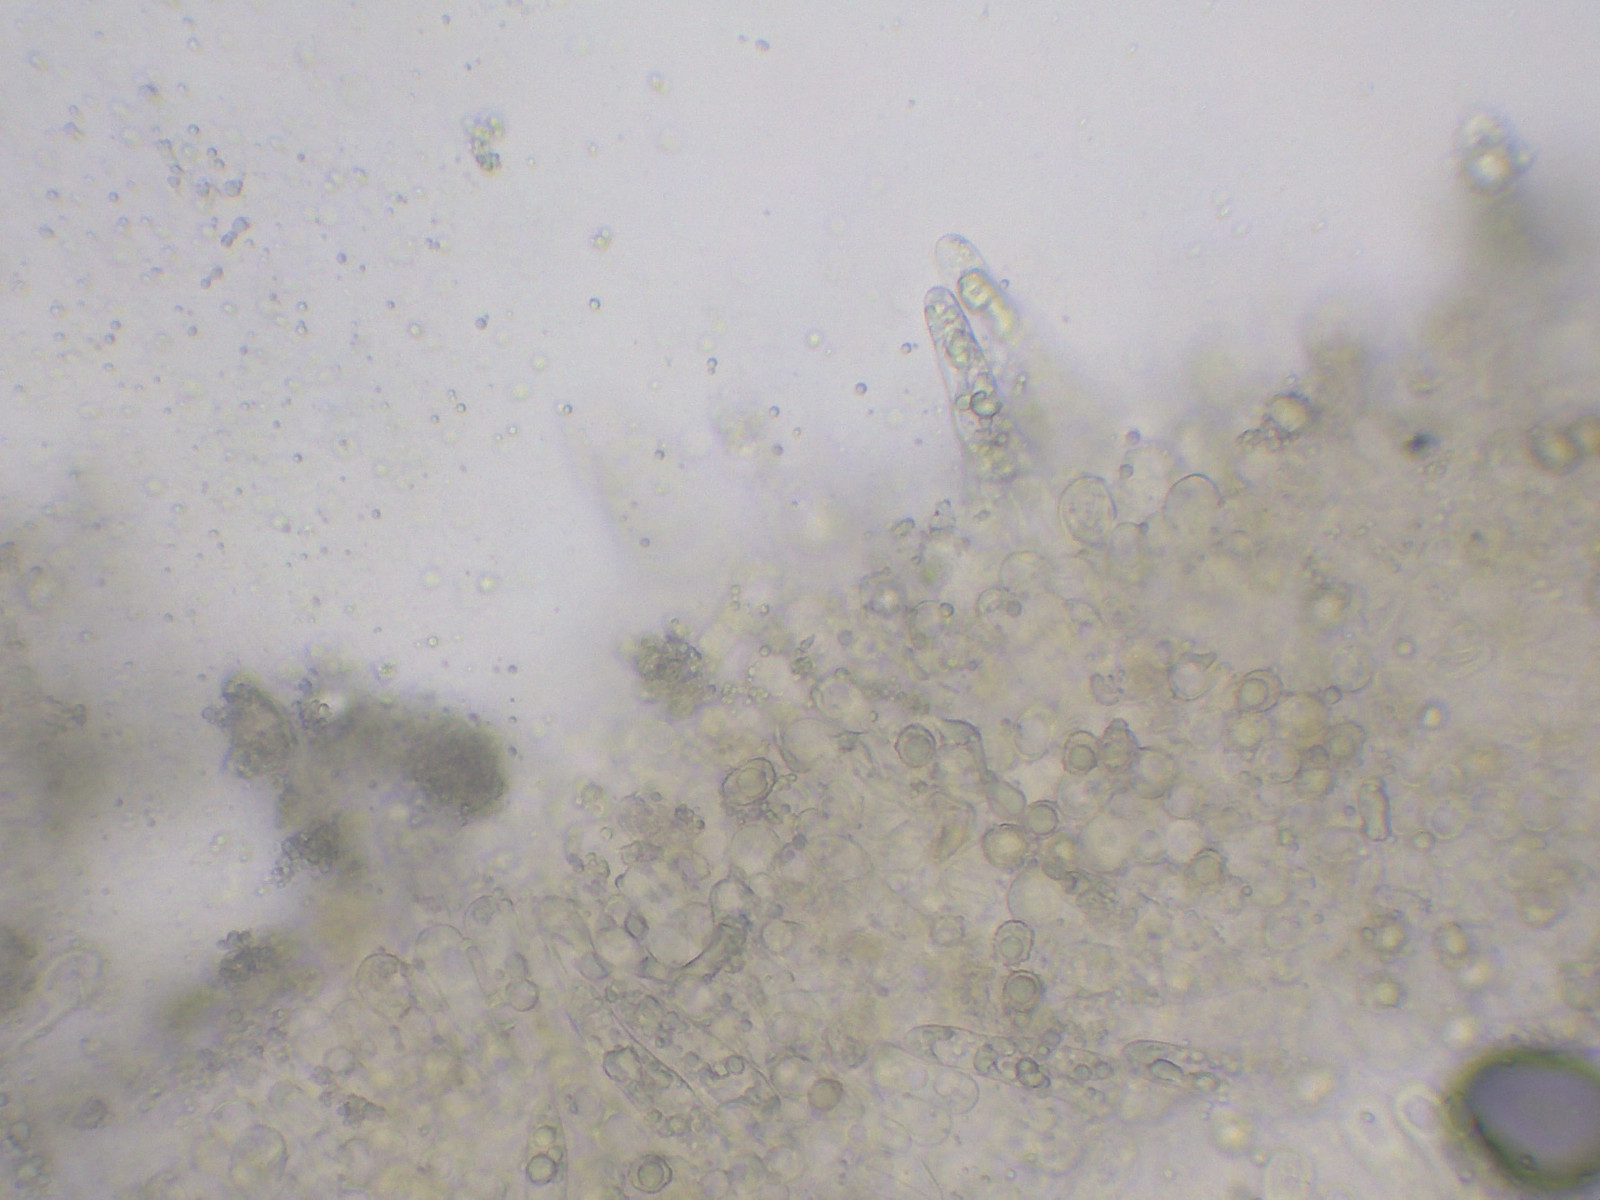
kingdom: Fungi
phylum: Basidiomycota
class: Agaricomycetes
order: Russulales
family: Russulaceae
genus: Lactarius
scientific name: Lactarius lilacinus
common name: lilla mælkehat
